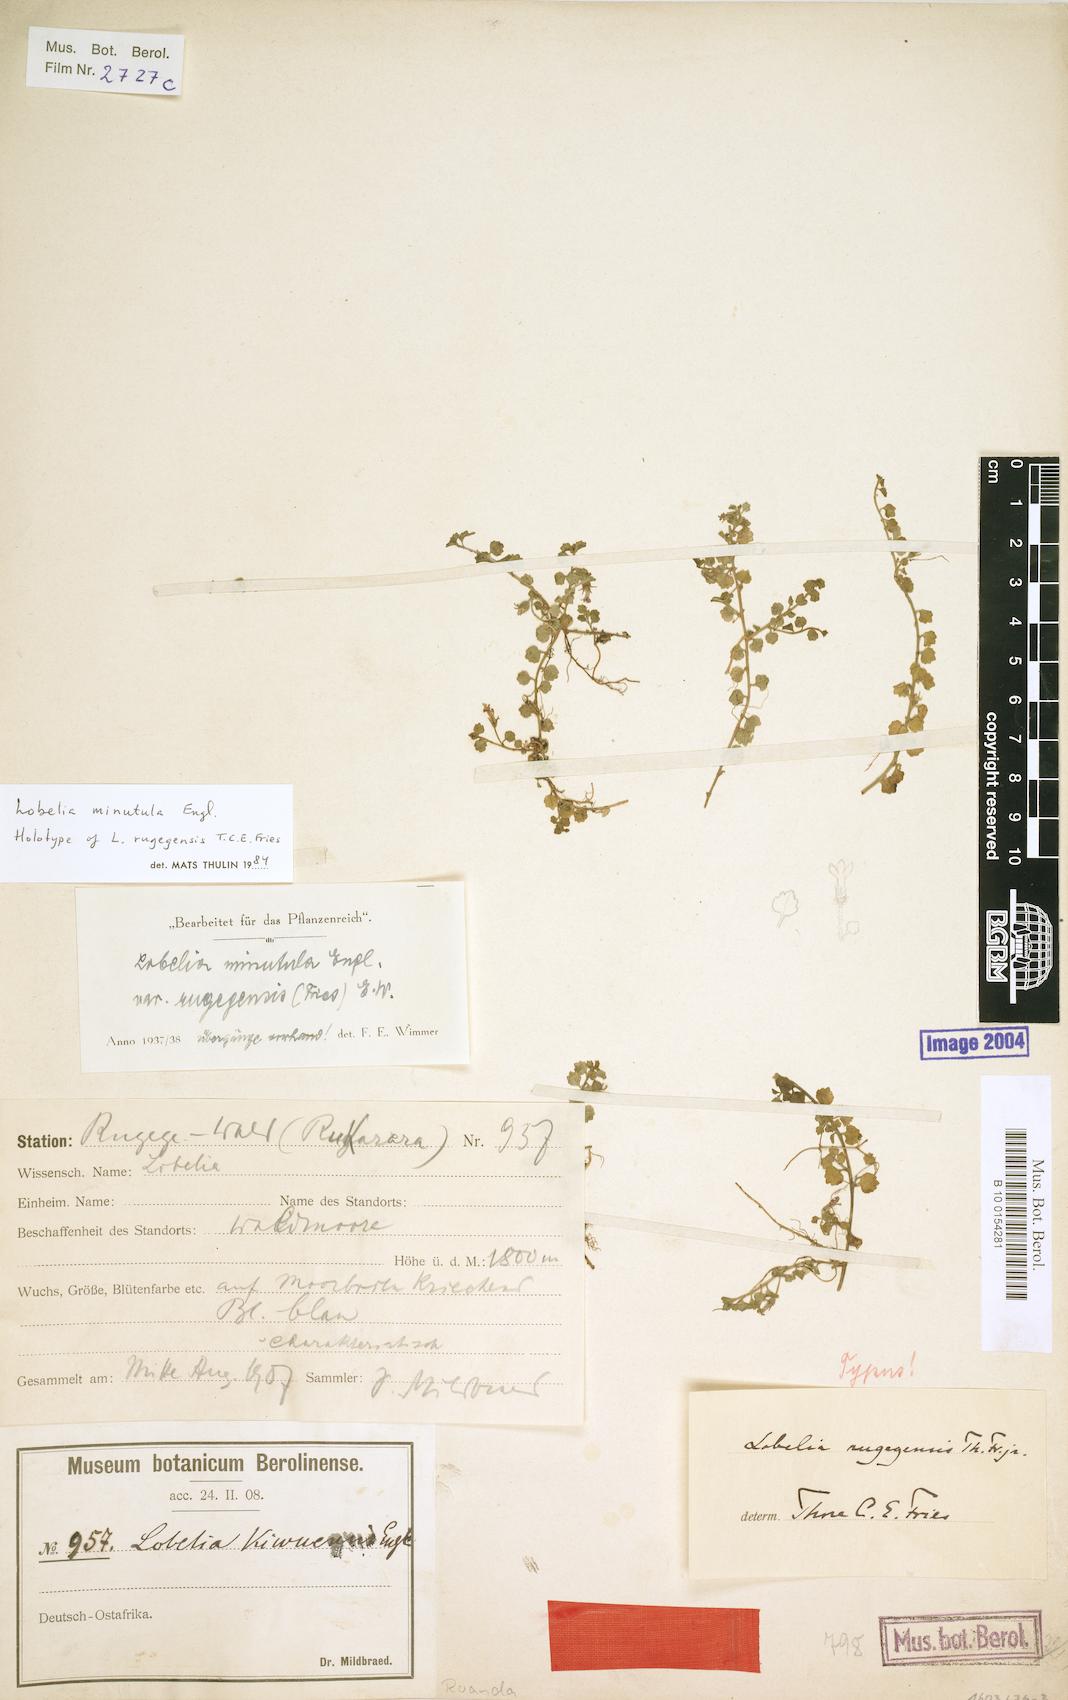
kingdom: Plantae
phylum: Tracheophyta
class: Magnoliopsida
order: Asterales
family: Campanulaceae
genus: Lobelia
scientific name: Lobelia minutula
